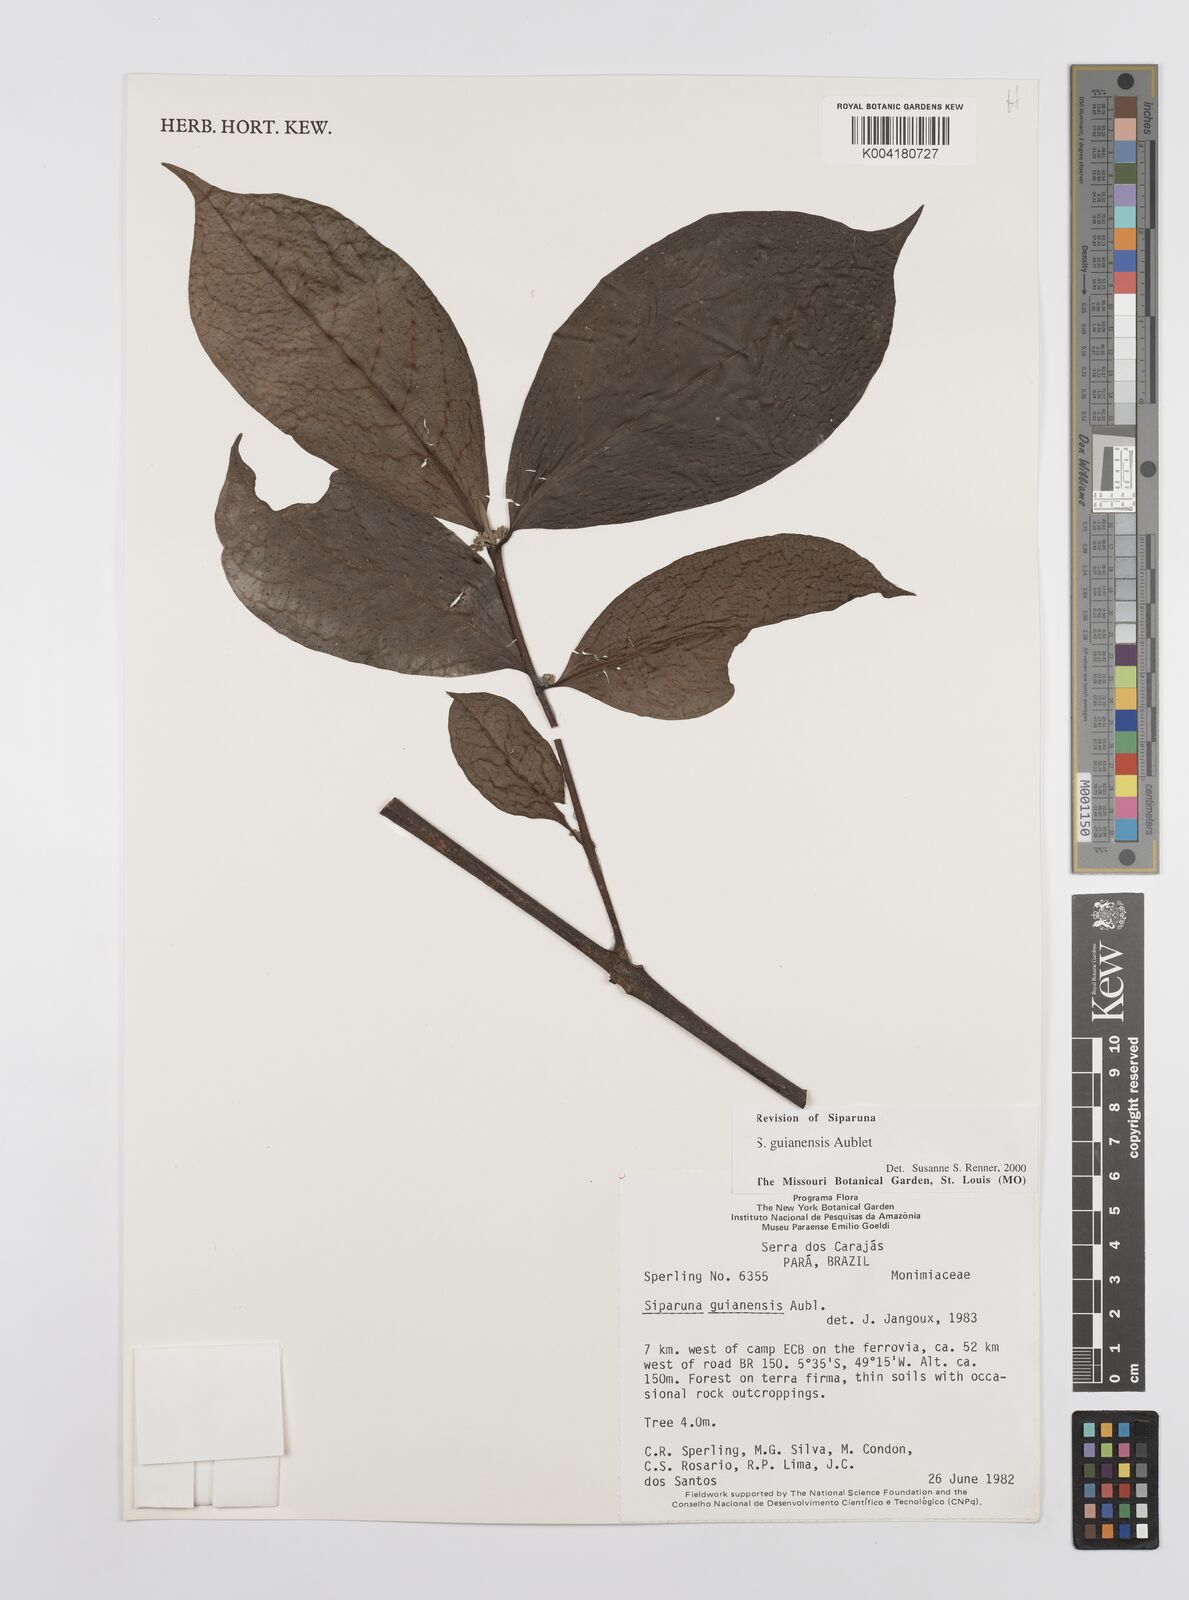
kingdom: Plantae
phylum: Tracheophyta
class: Magnoliopsida
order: Laurales
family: Siparunaceae
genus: Siparuna
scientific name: Siparuna guianensis
